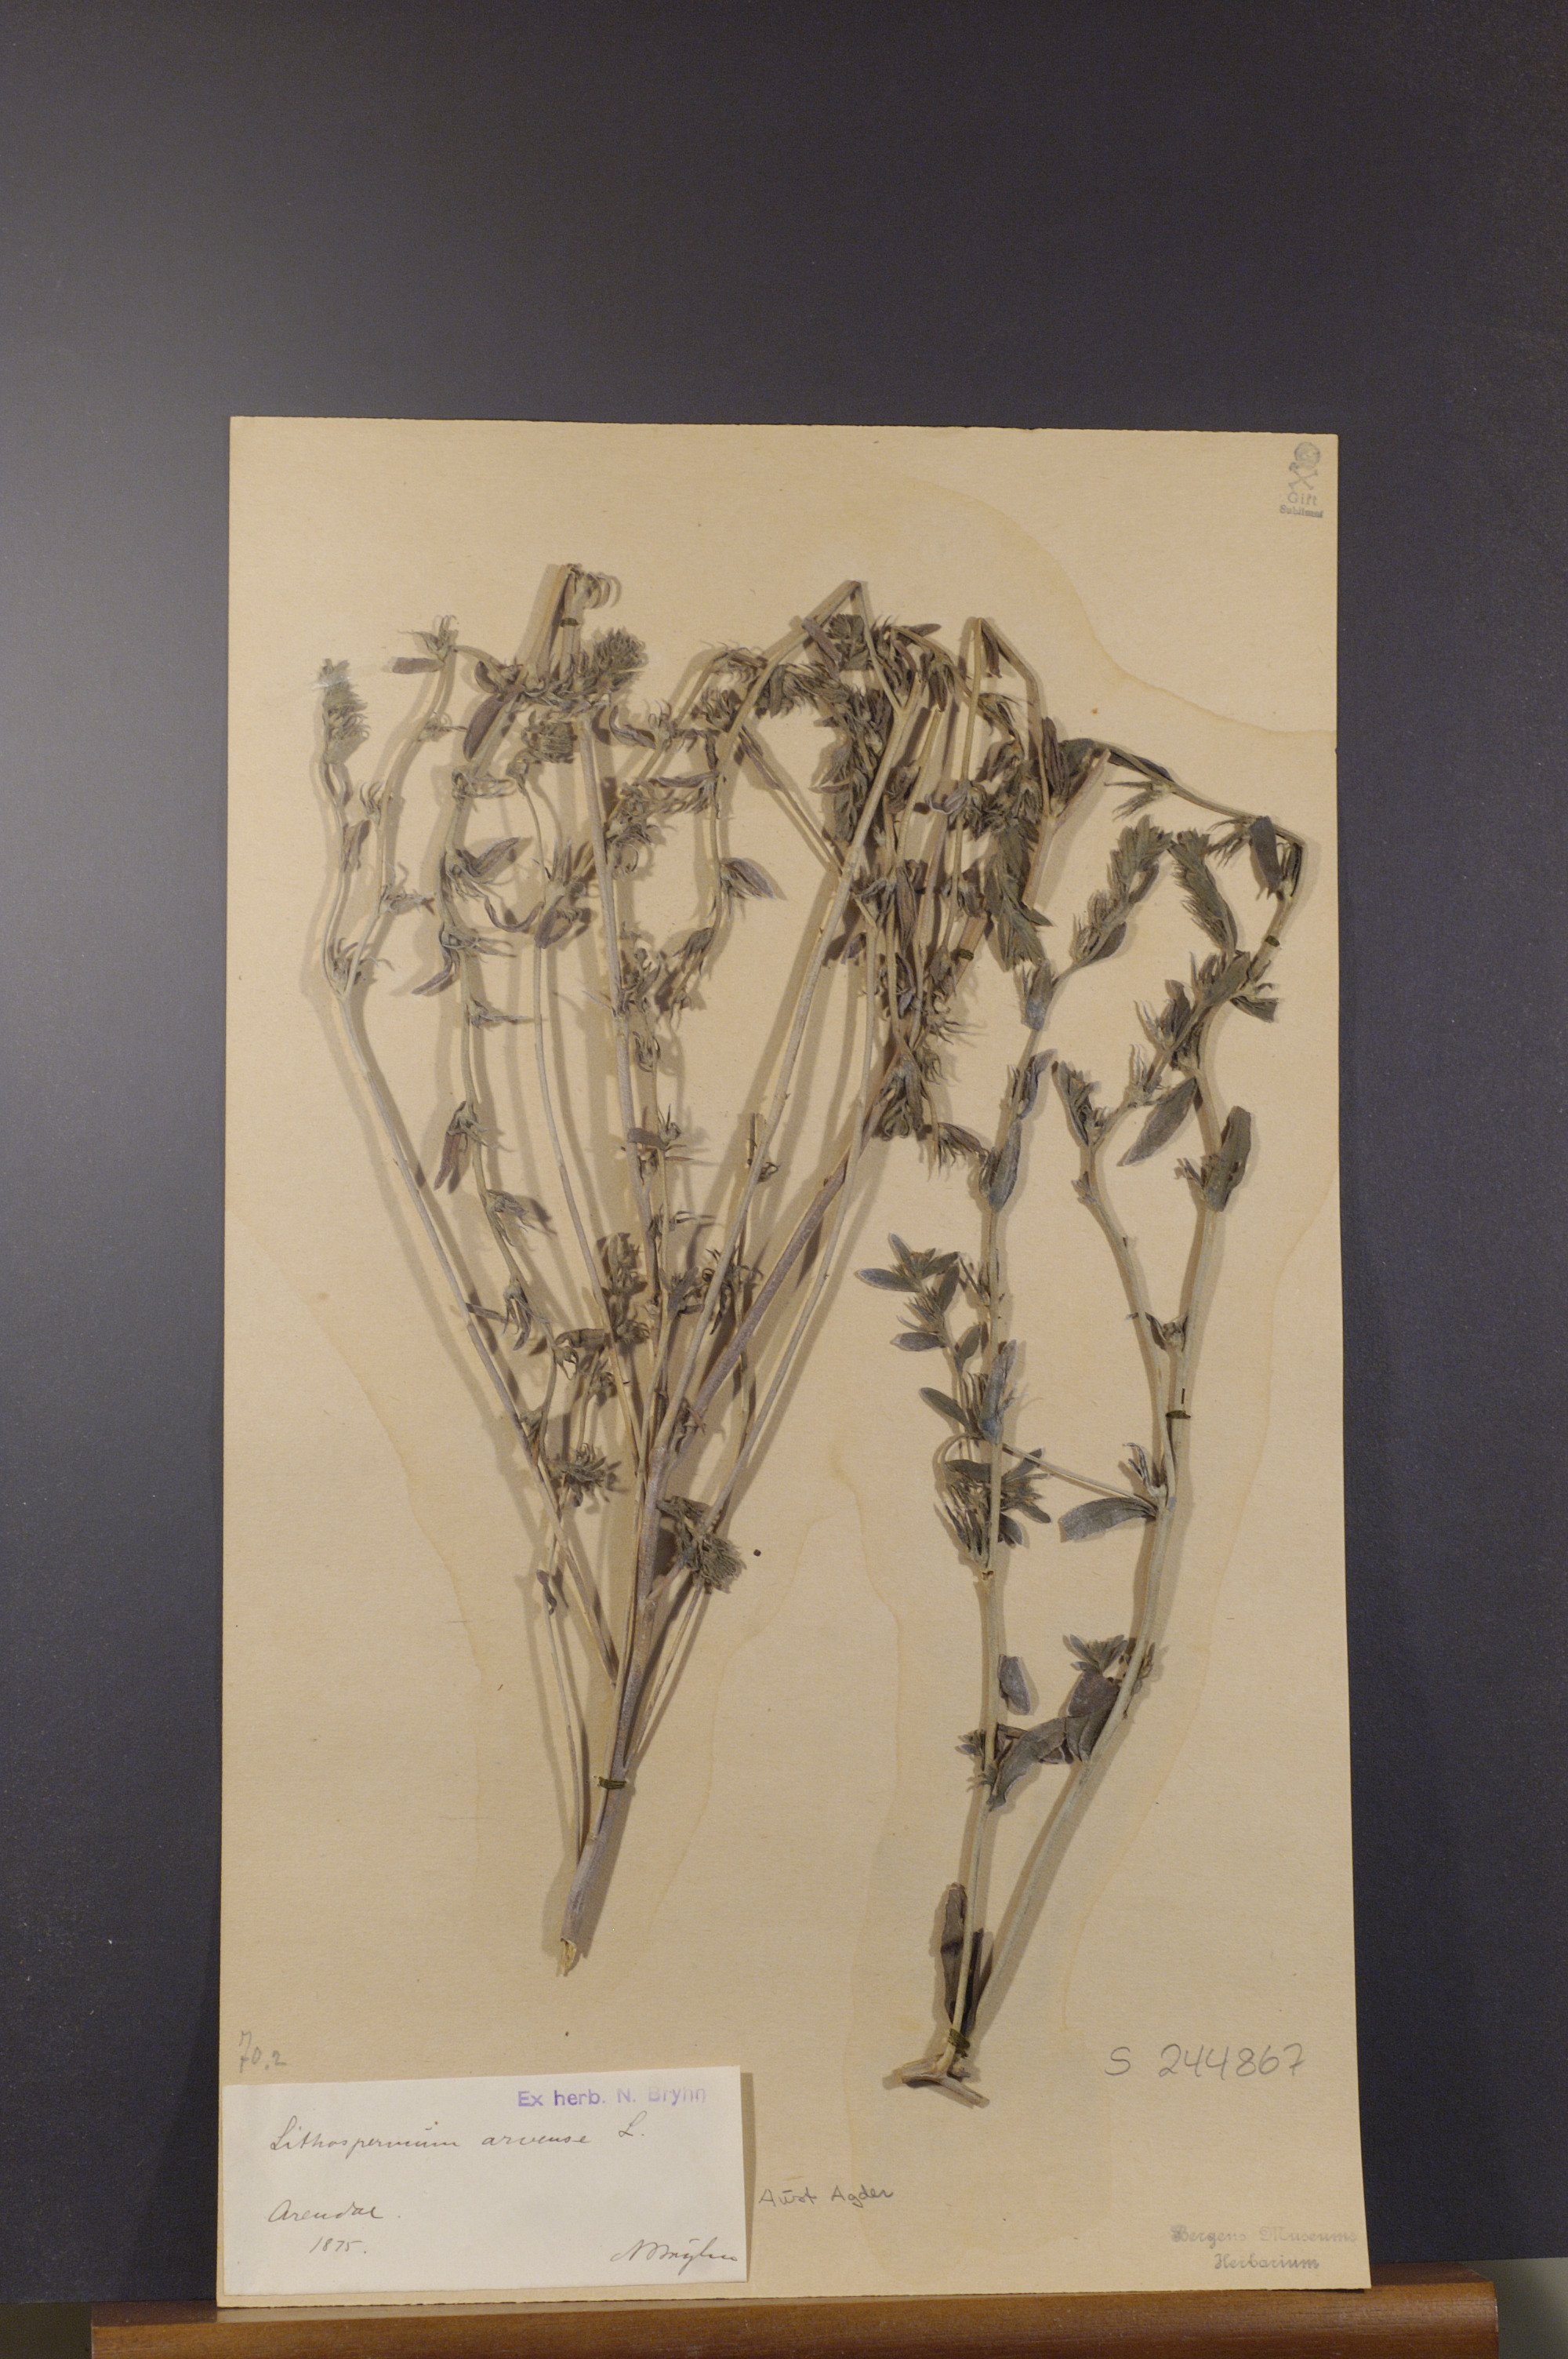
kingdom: Plantae
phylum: Tracheophyta
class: Magnoliopsida
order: Boraginales
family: Boraginaceae
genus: Buglossoides
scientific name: Buglossoides arvensis
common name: Corn gromwell
